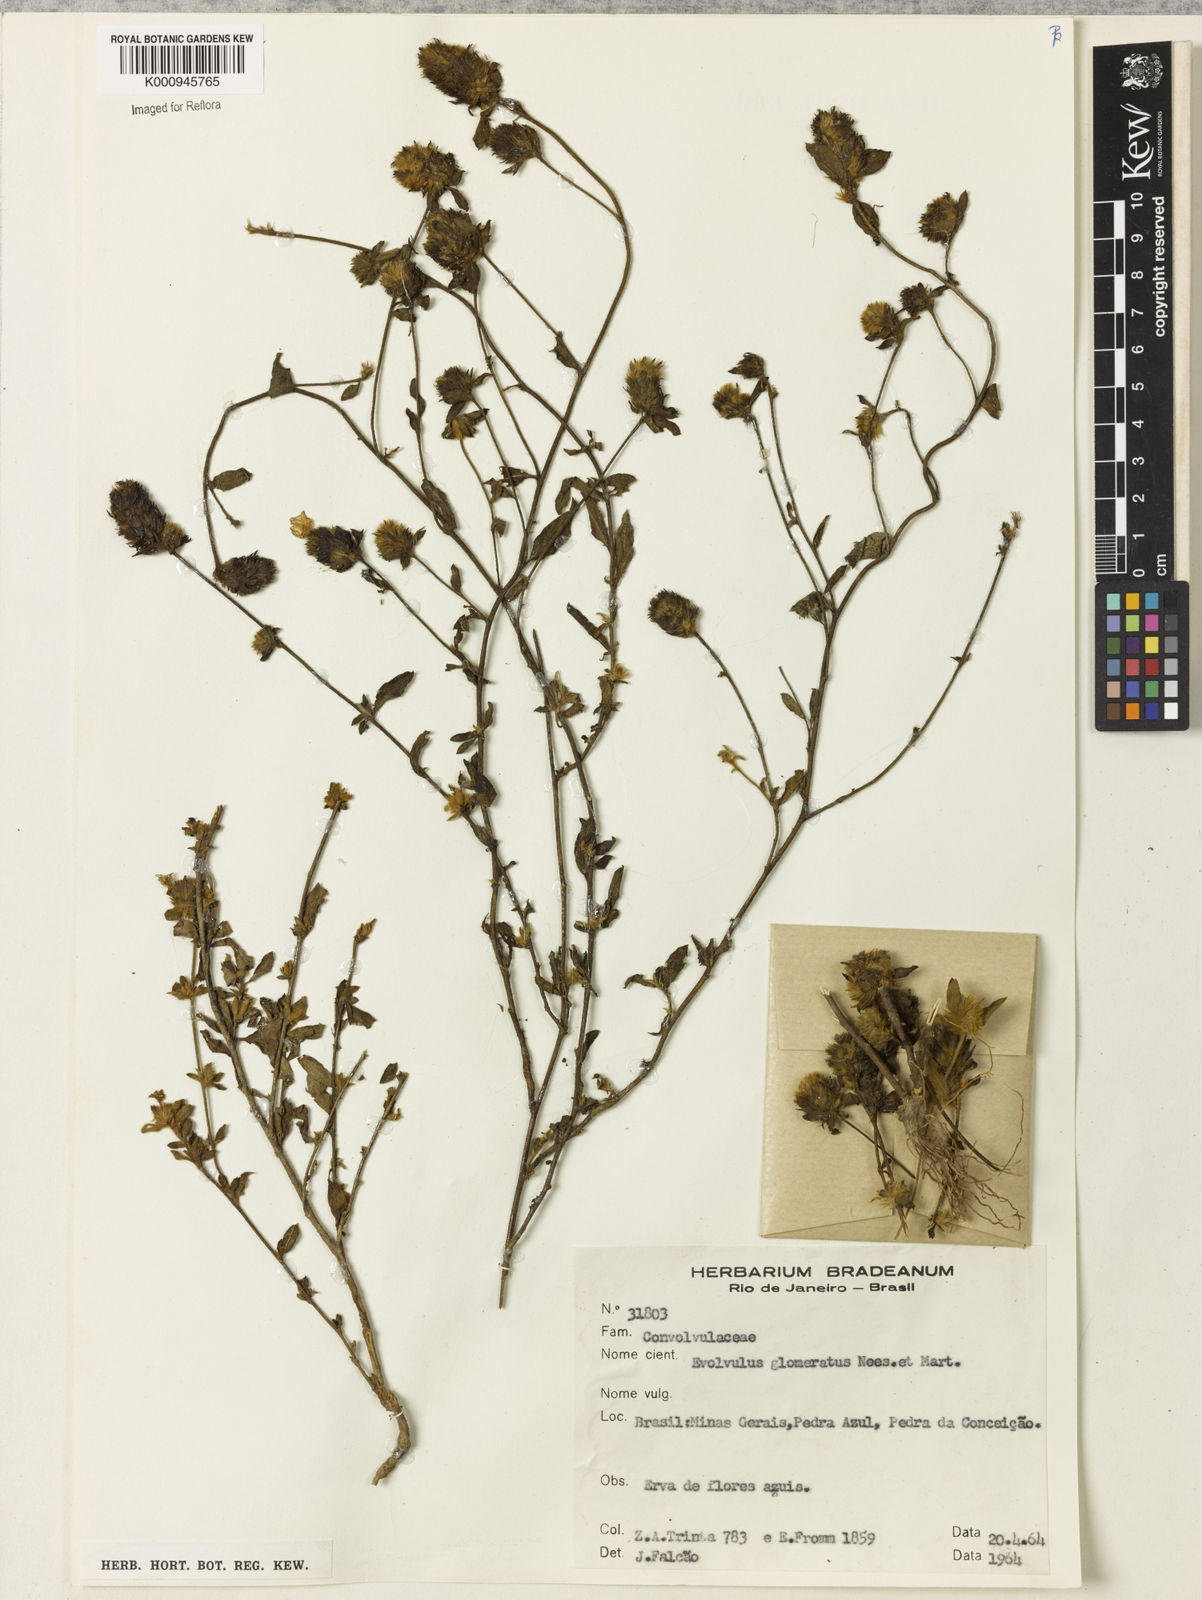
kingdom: Plantae
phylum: Tracheophyta
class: Magnoliopsida
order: Solanales
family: Convolvulaceae
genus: Evolvulus
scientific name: Evolvulus glomeratus
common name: Brazilian dwarf morning-glory
